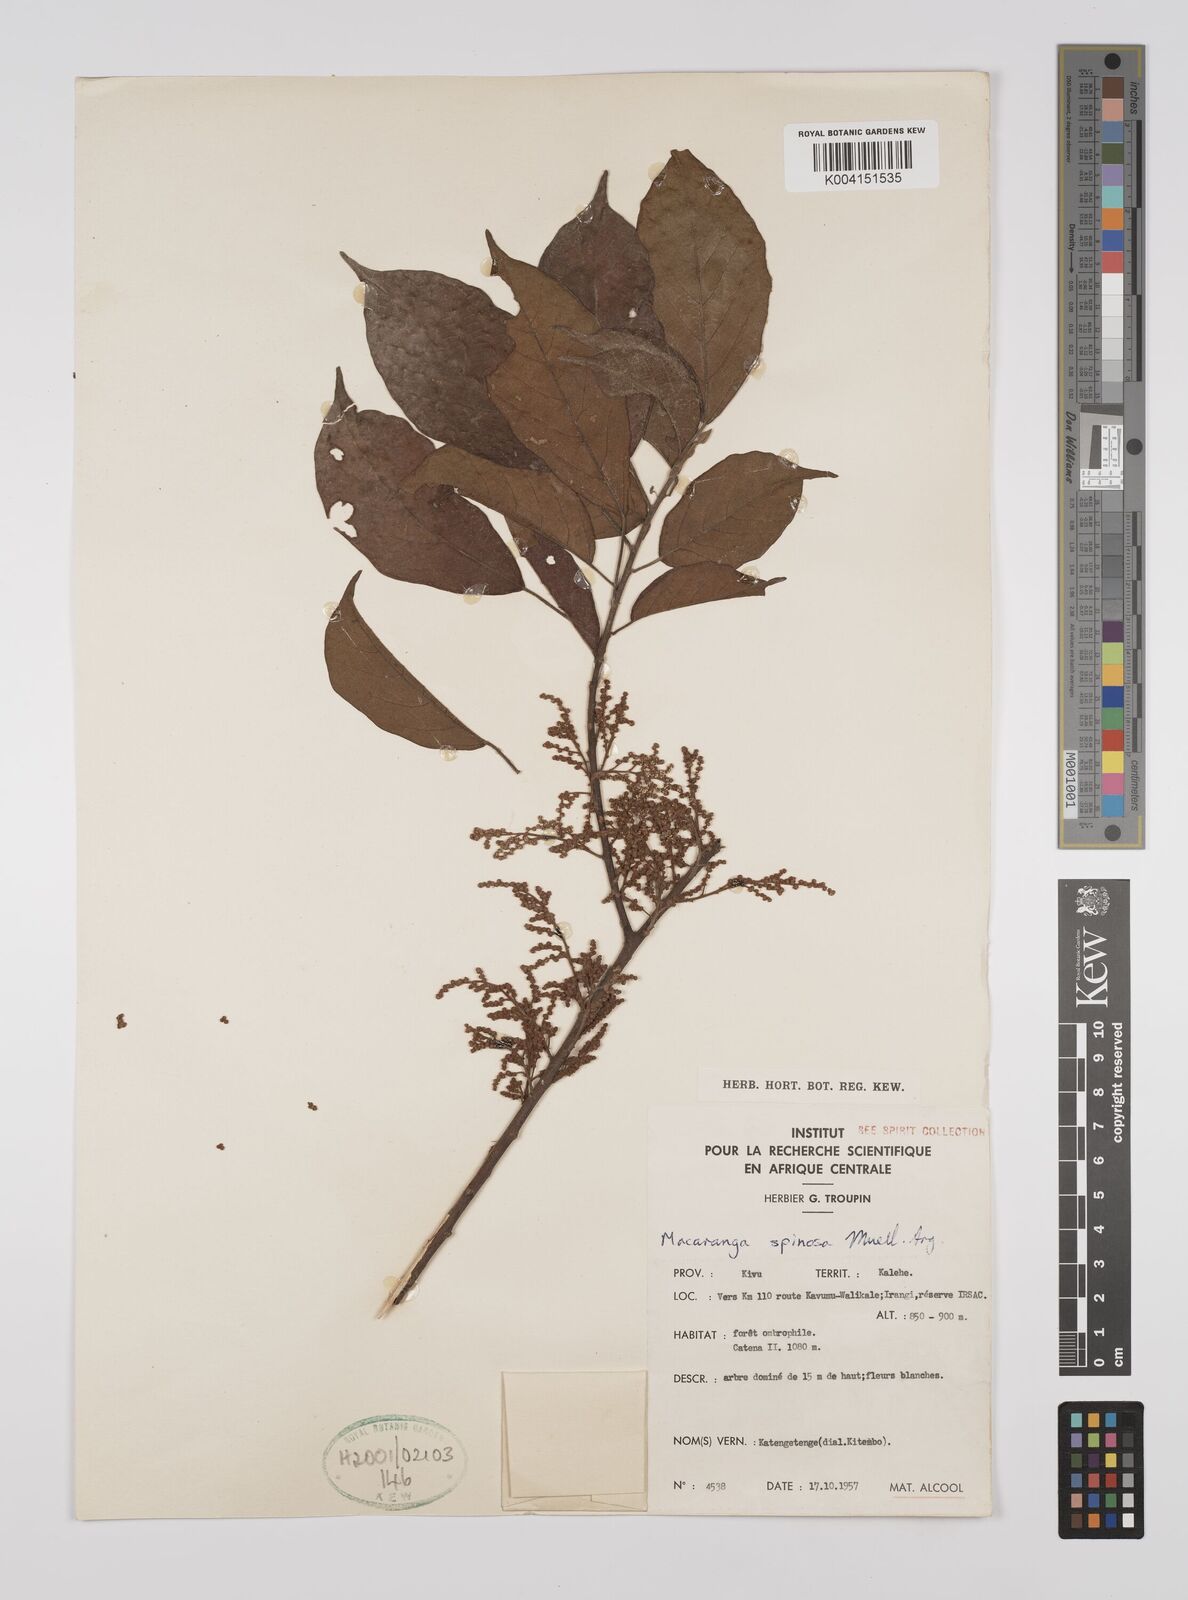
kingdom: Plantae
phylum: Tracheophyta
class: Magnoliopsida
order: Malpighiales
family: Euphorbiaceae
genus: Macaranga
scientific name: Macaranga spinosa
